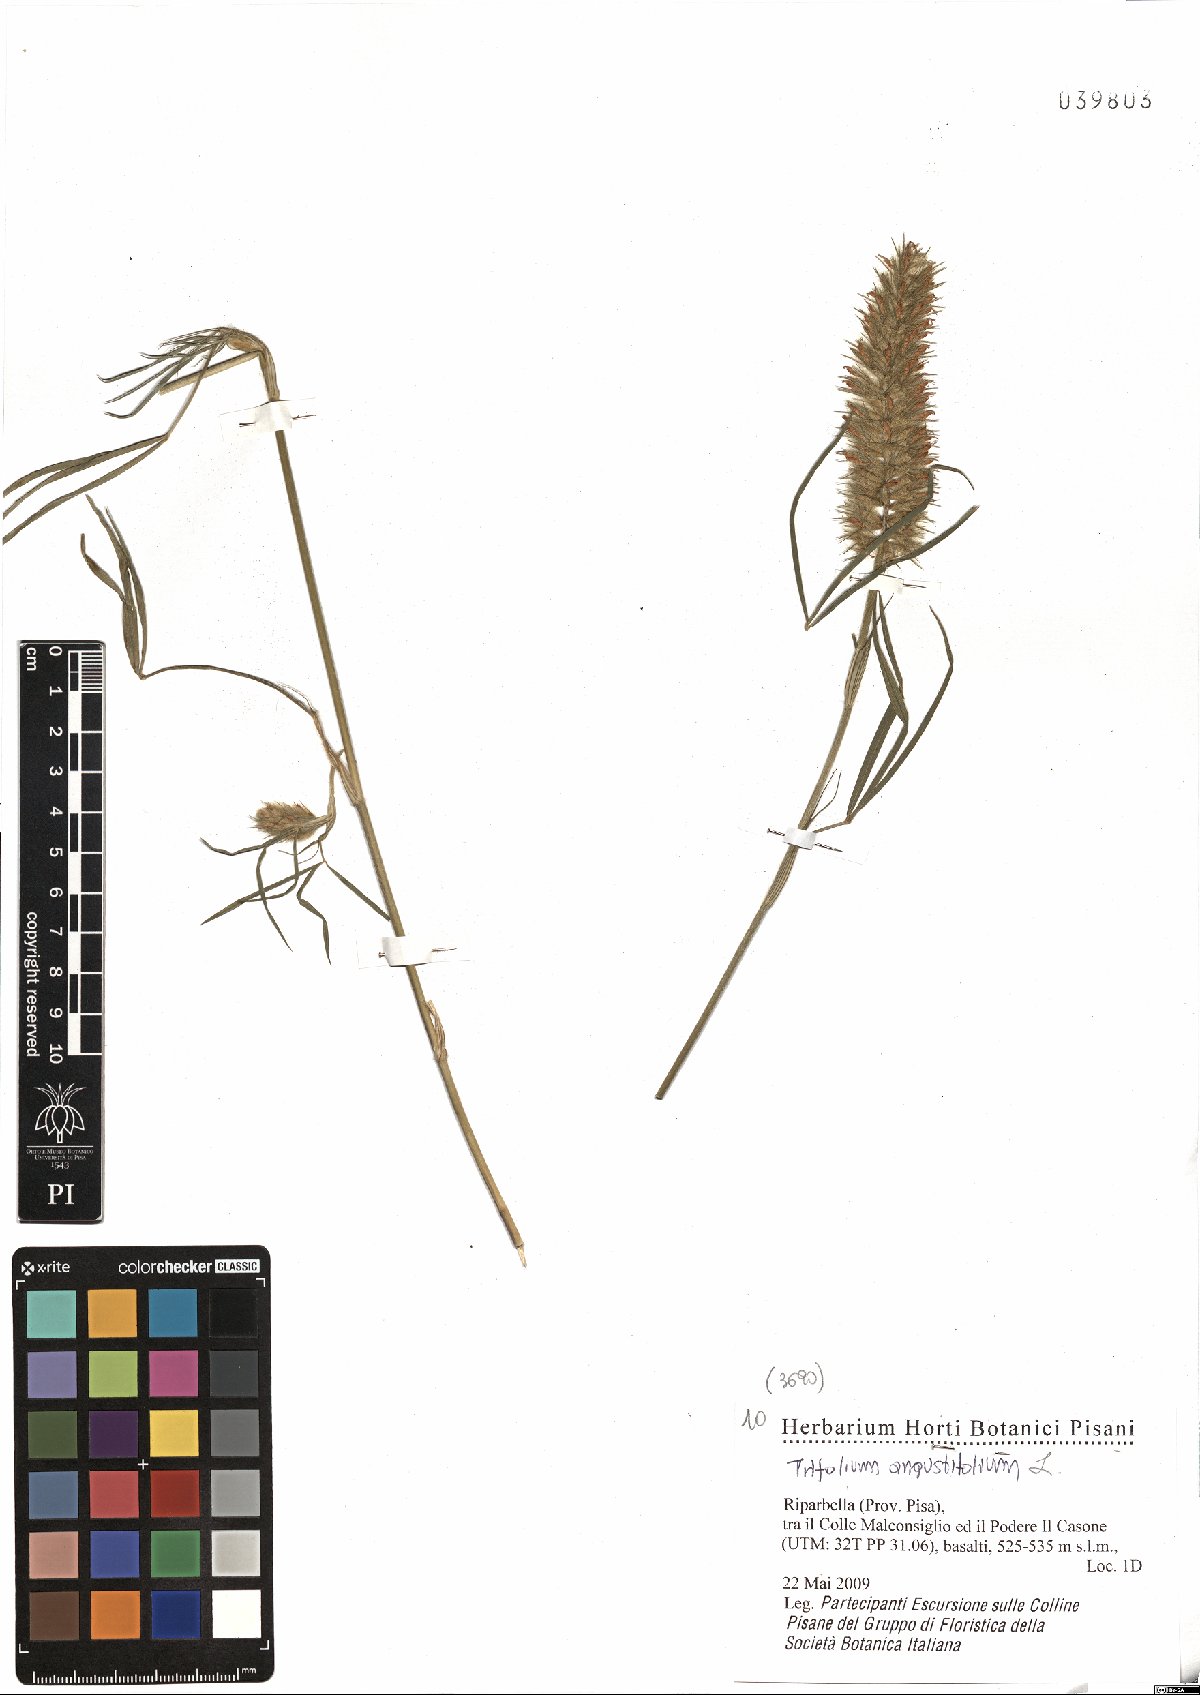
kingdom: Plantae
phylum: Tracheophyta
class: Magnoliopsida
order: Fabales
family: Fabaceae
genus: Trifolium
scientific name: Trifolium angustifolium
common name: Narrow clover
